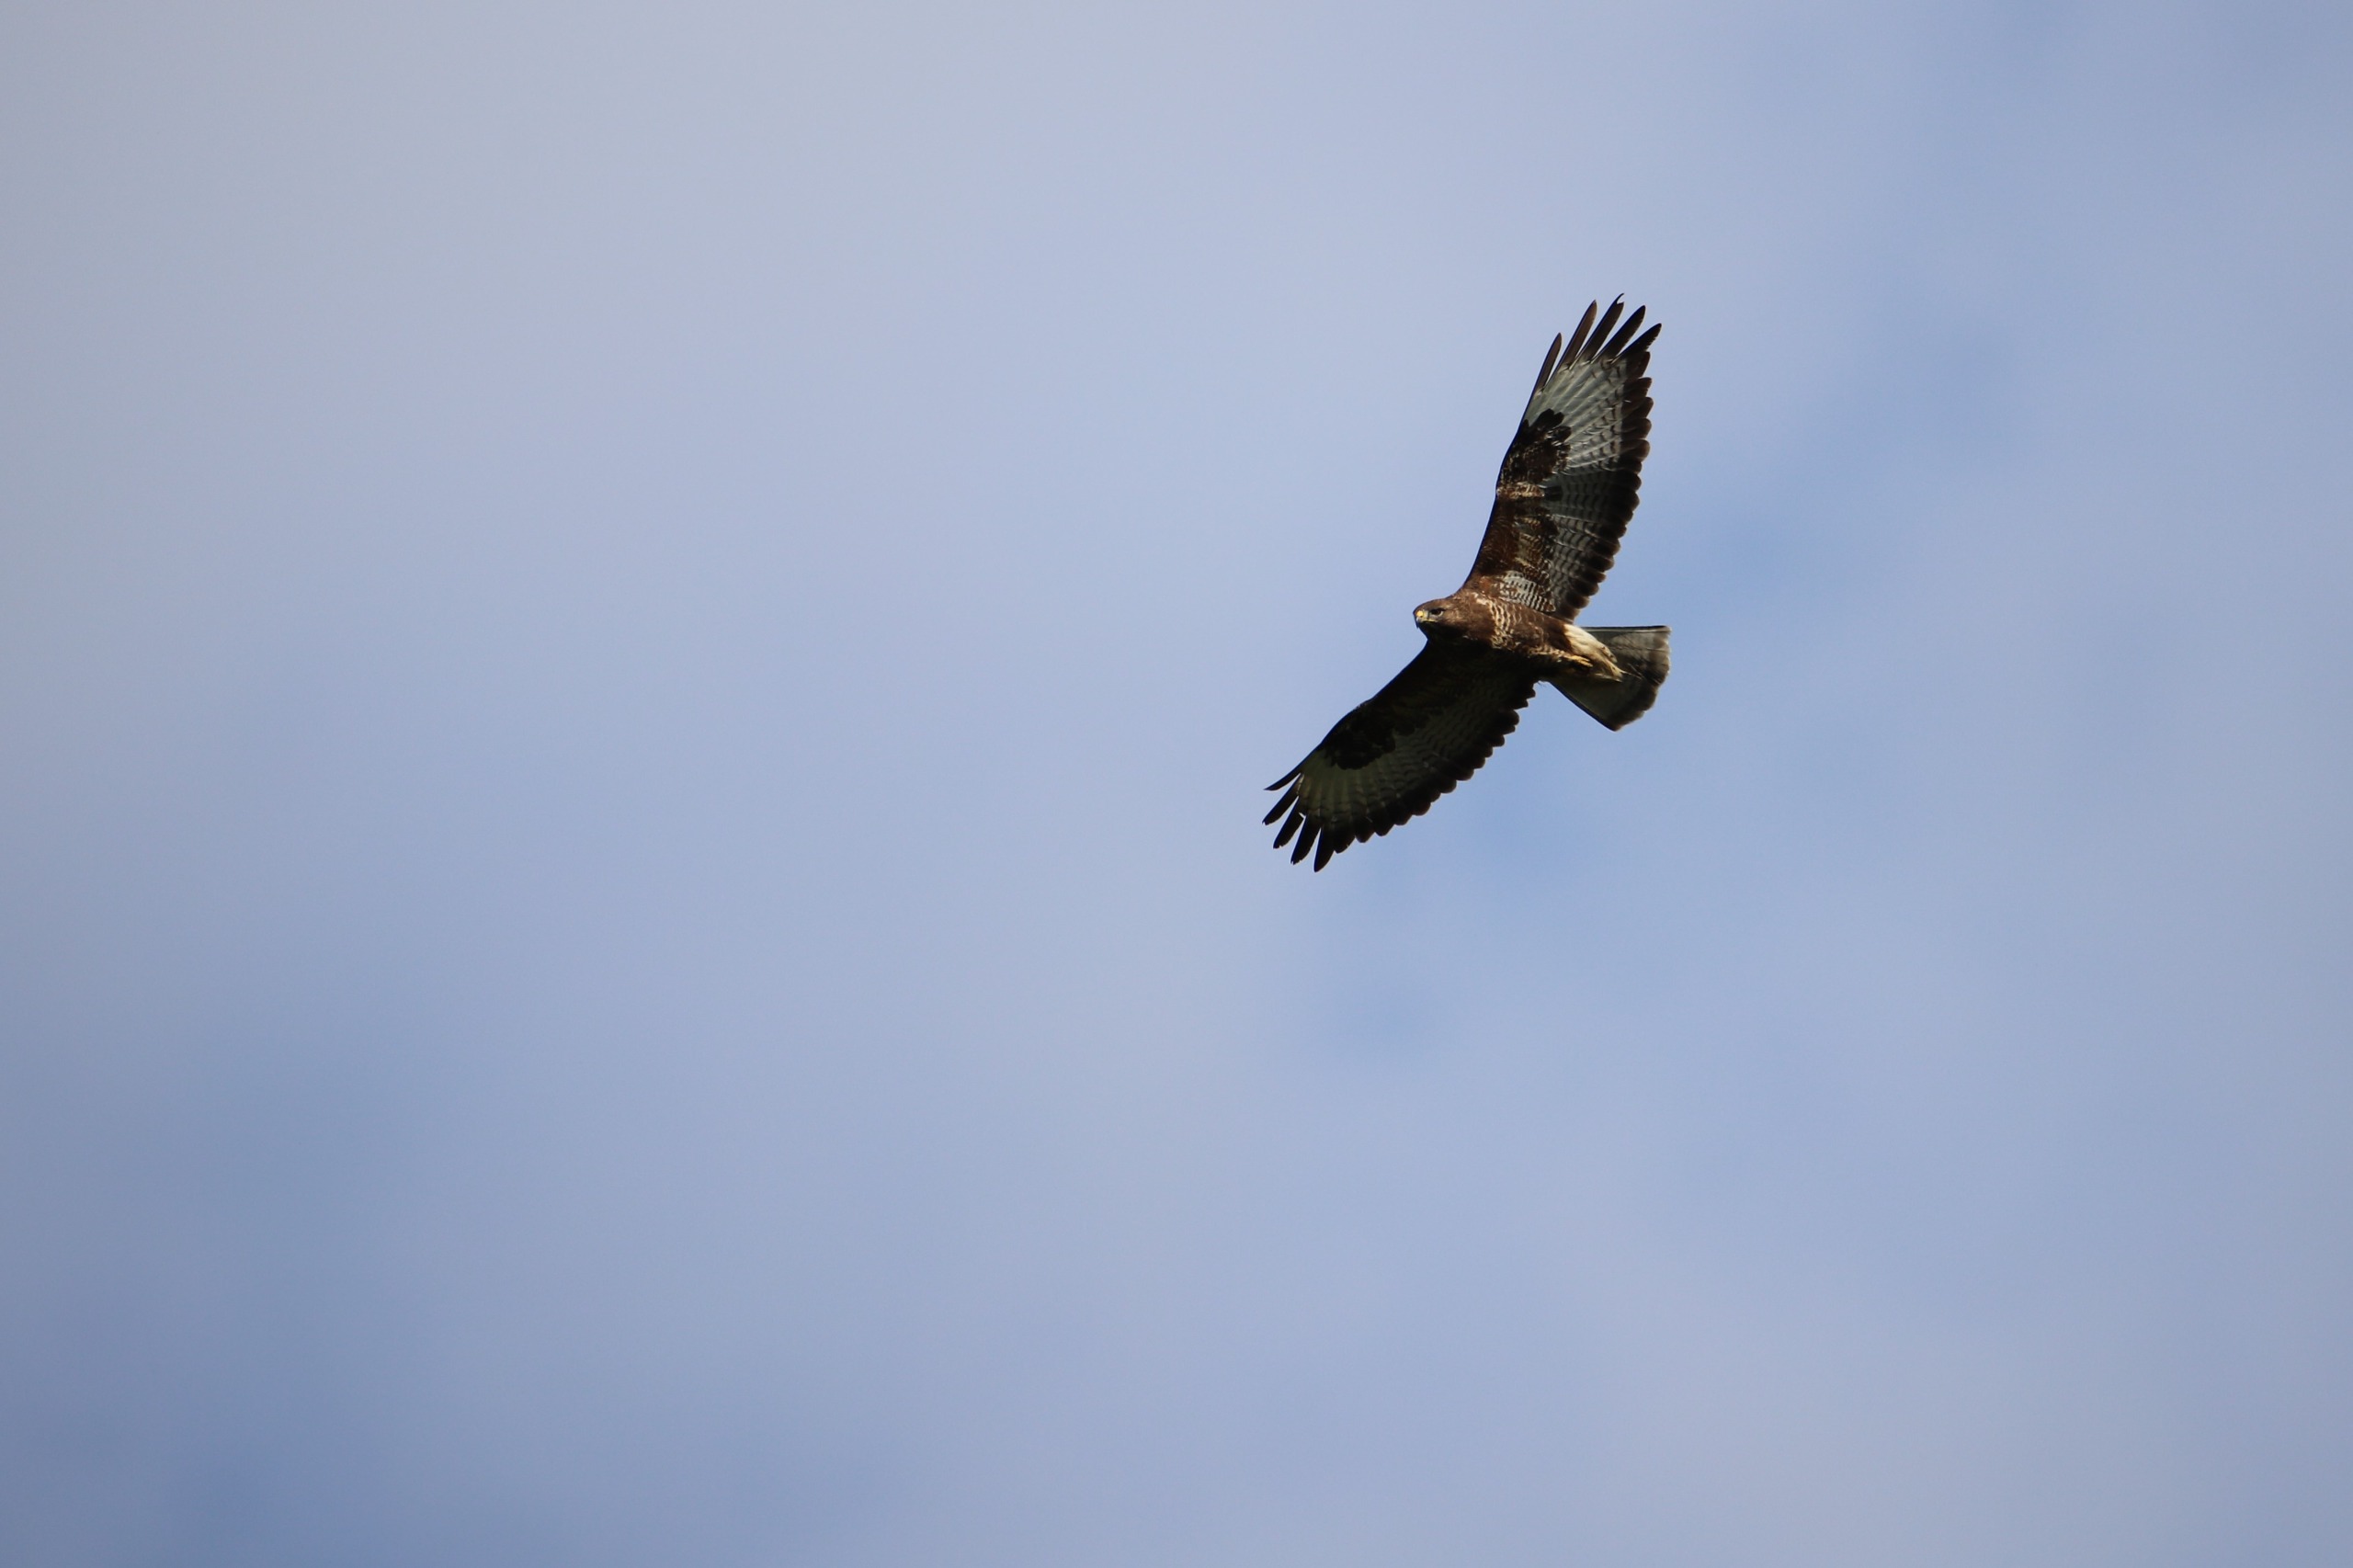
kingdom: Animalia
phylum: Chordata
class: Aves
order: Accipitriformes
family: Accipitridae
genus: Buteo
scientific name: Buteo buteo
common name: Musvåge
